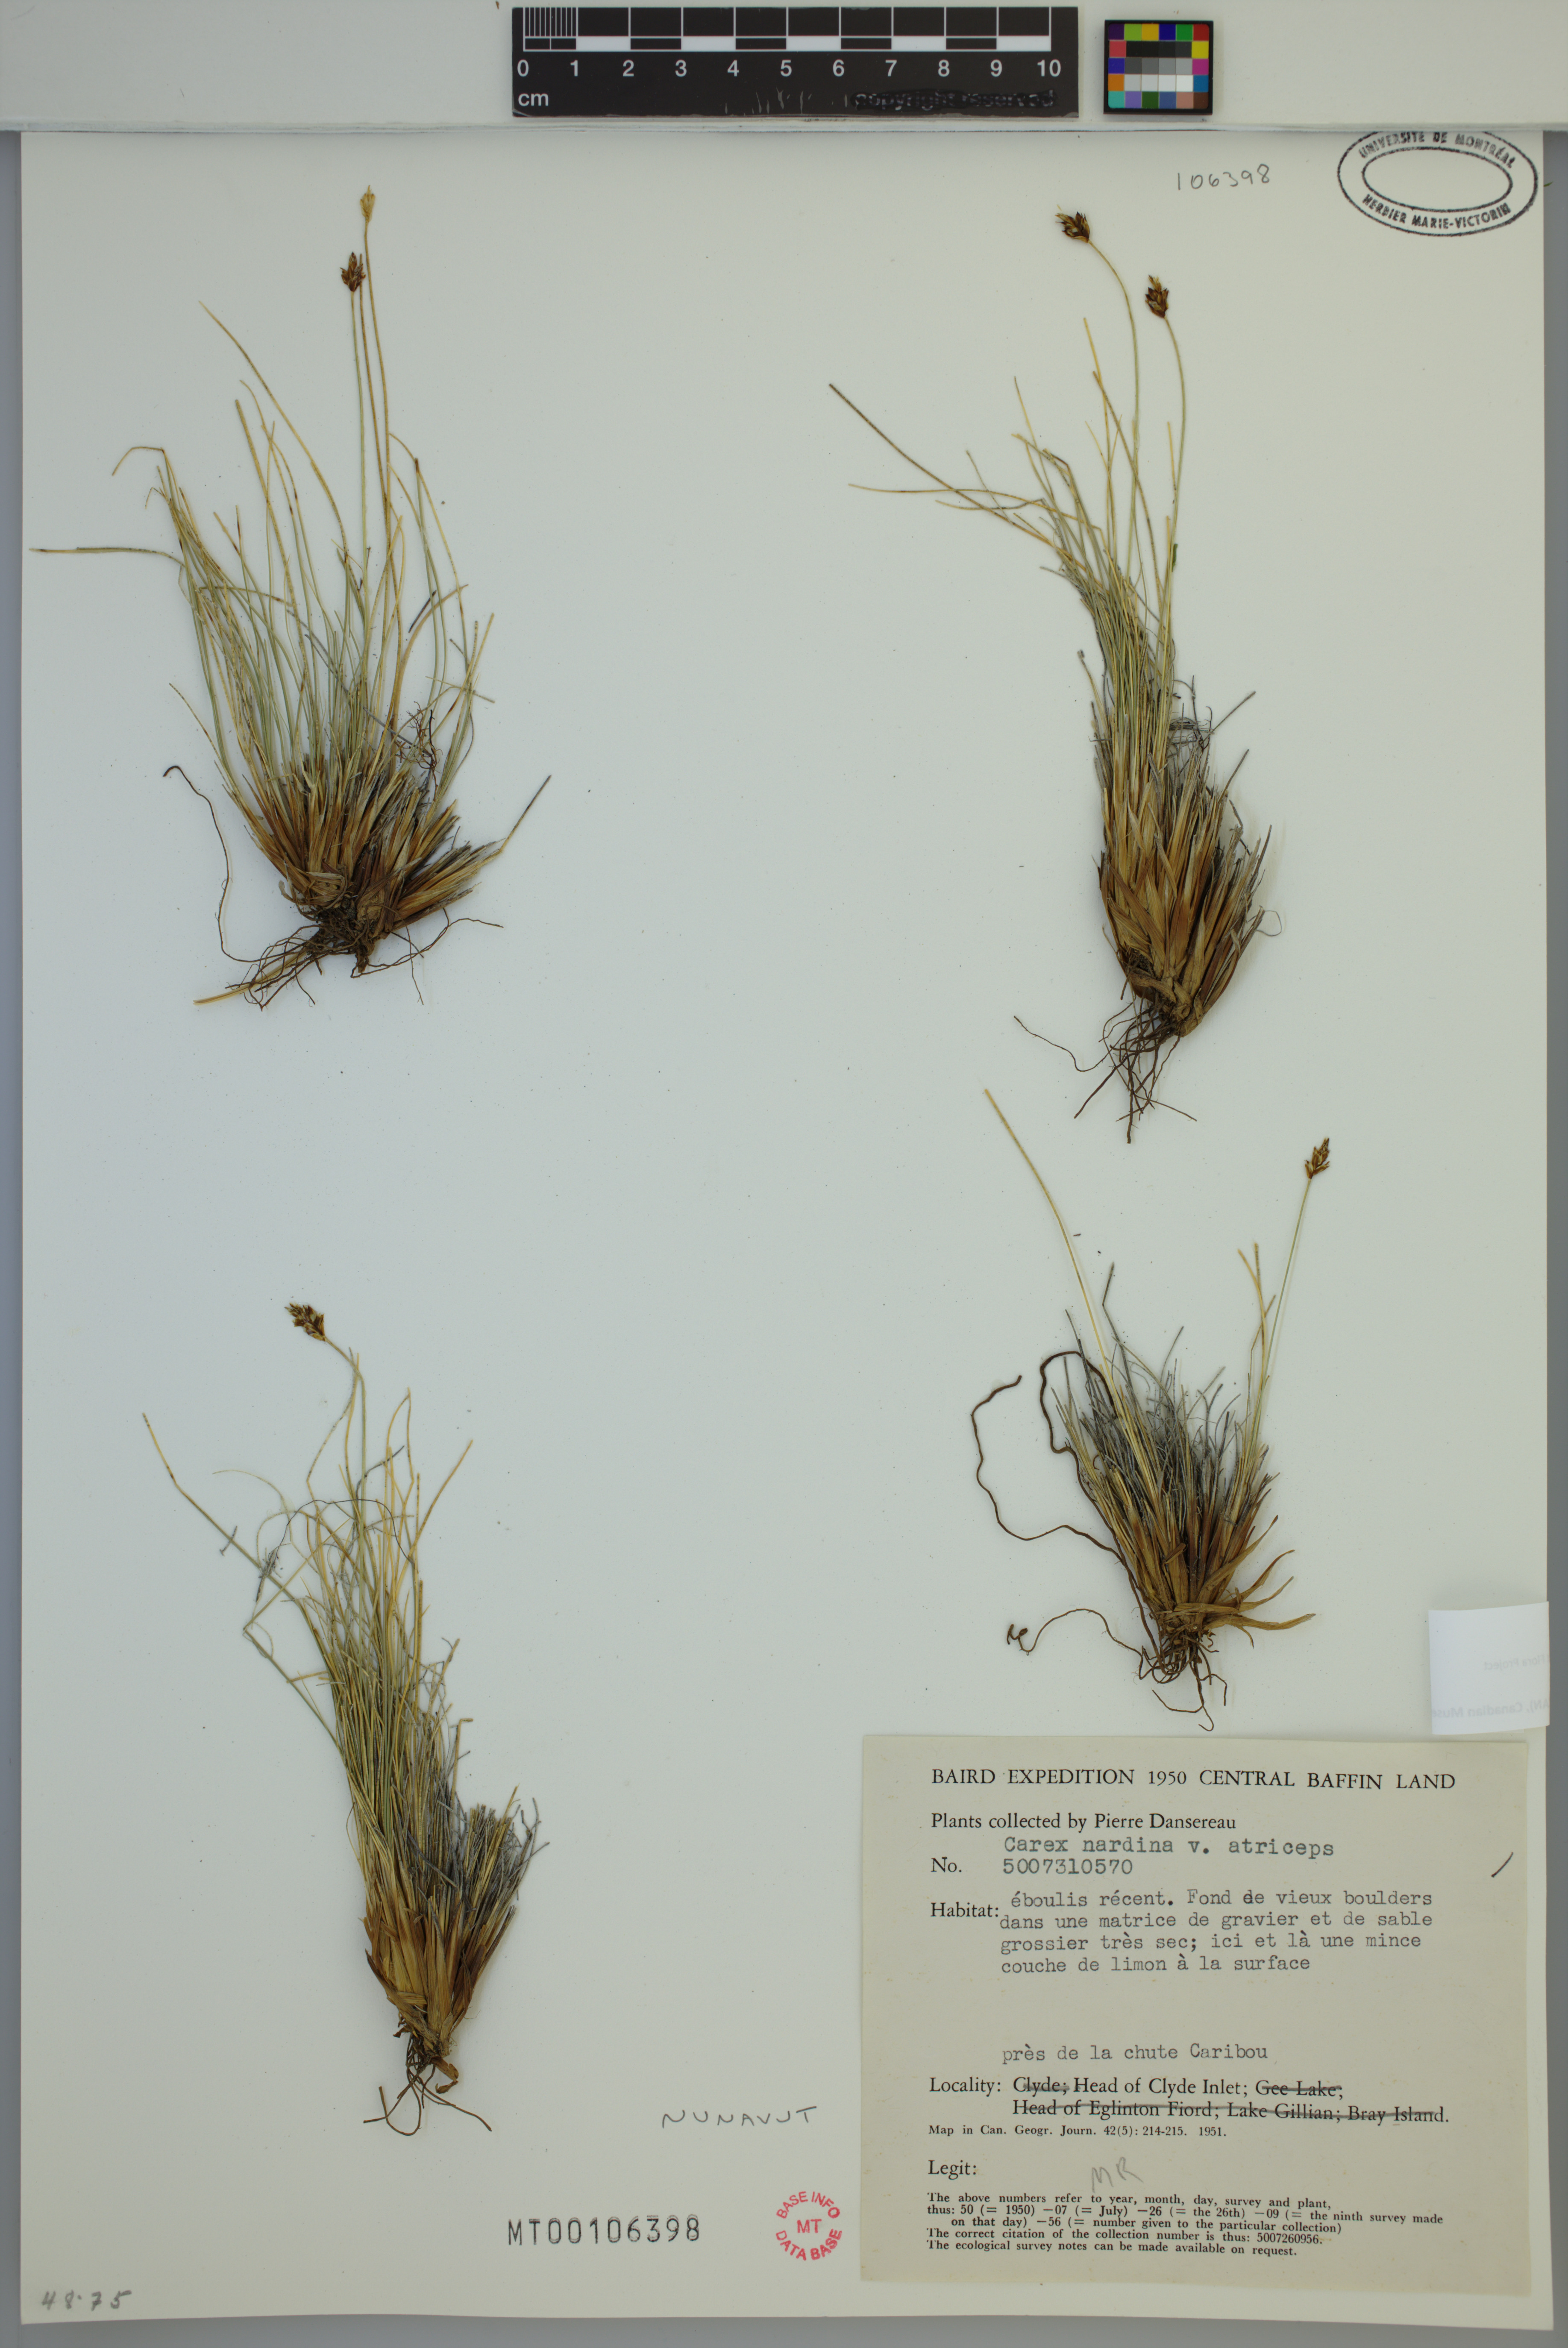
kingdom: Plantae
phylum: Tracheophyta
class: Liliopsida
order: Poales
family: Cyperaceae
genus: Carex
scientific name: Carex nardina
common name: Nard sedge
